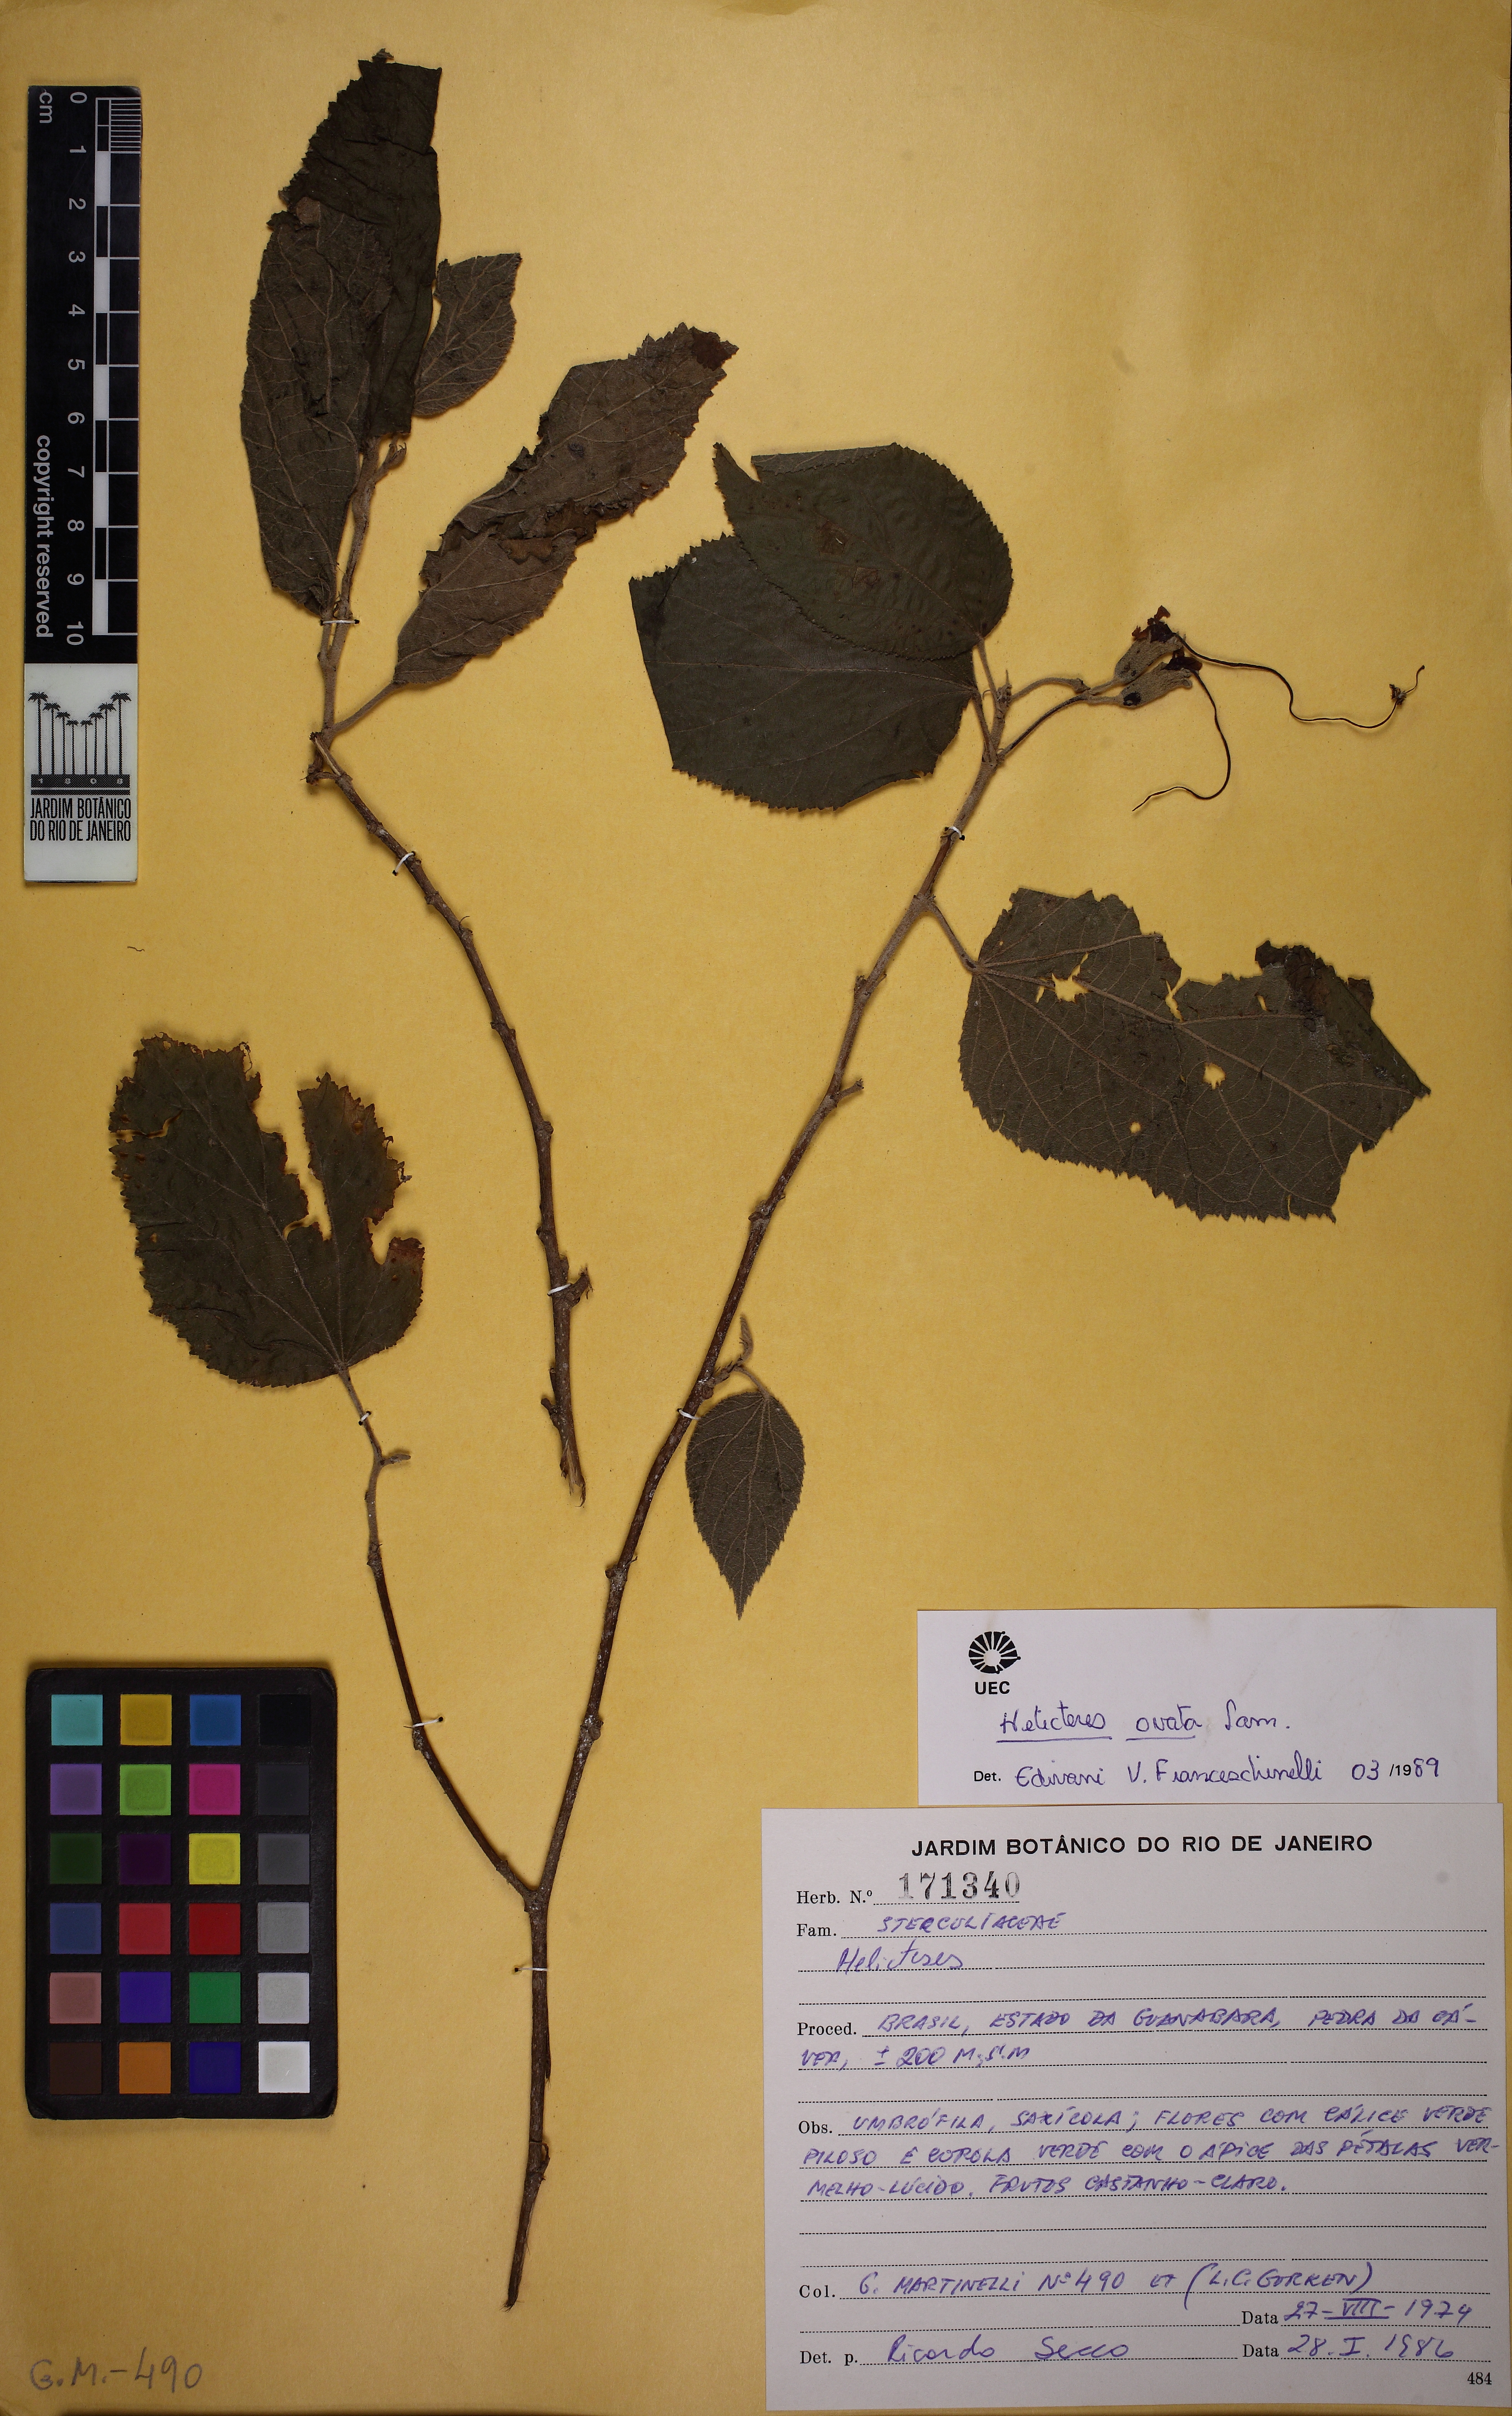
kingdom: Plantae
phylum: Tracheophyta
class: Magnoliopsida
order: Malvales
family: Malvaceae
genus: Helicteres
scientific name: Helicteres ovata
